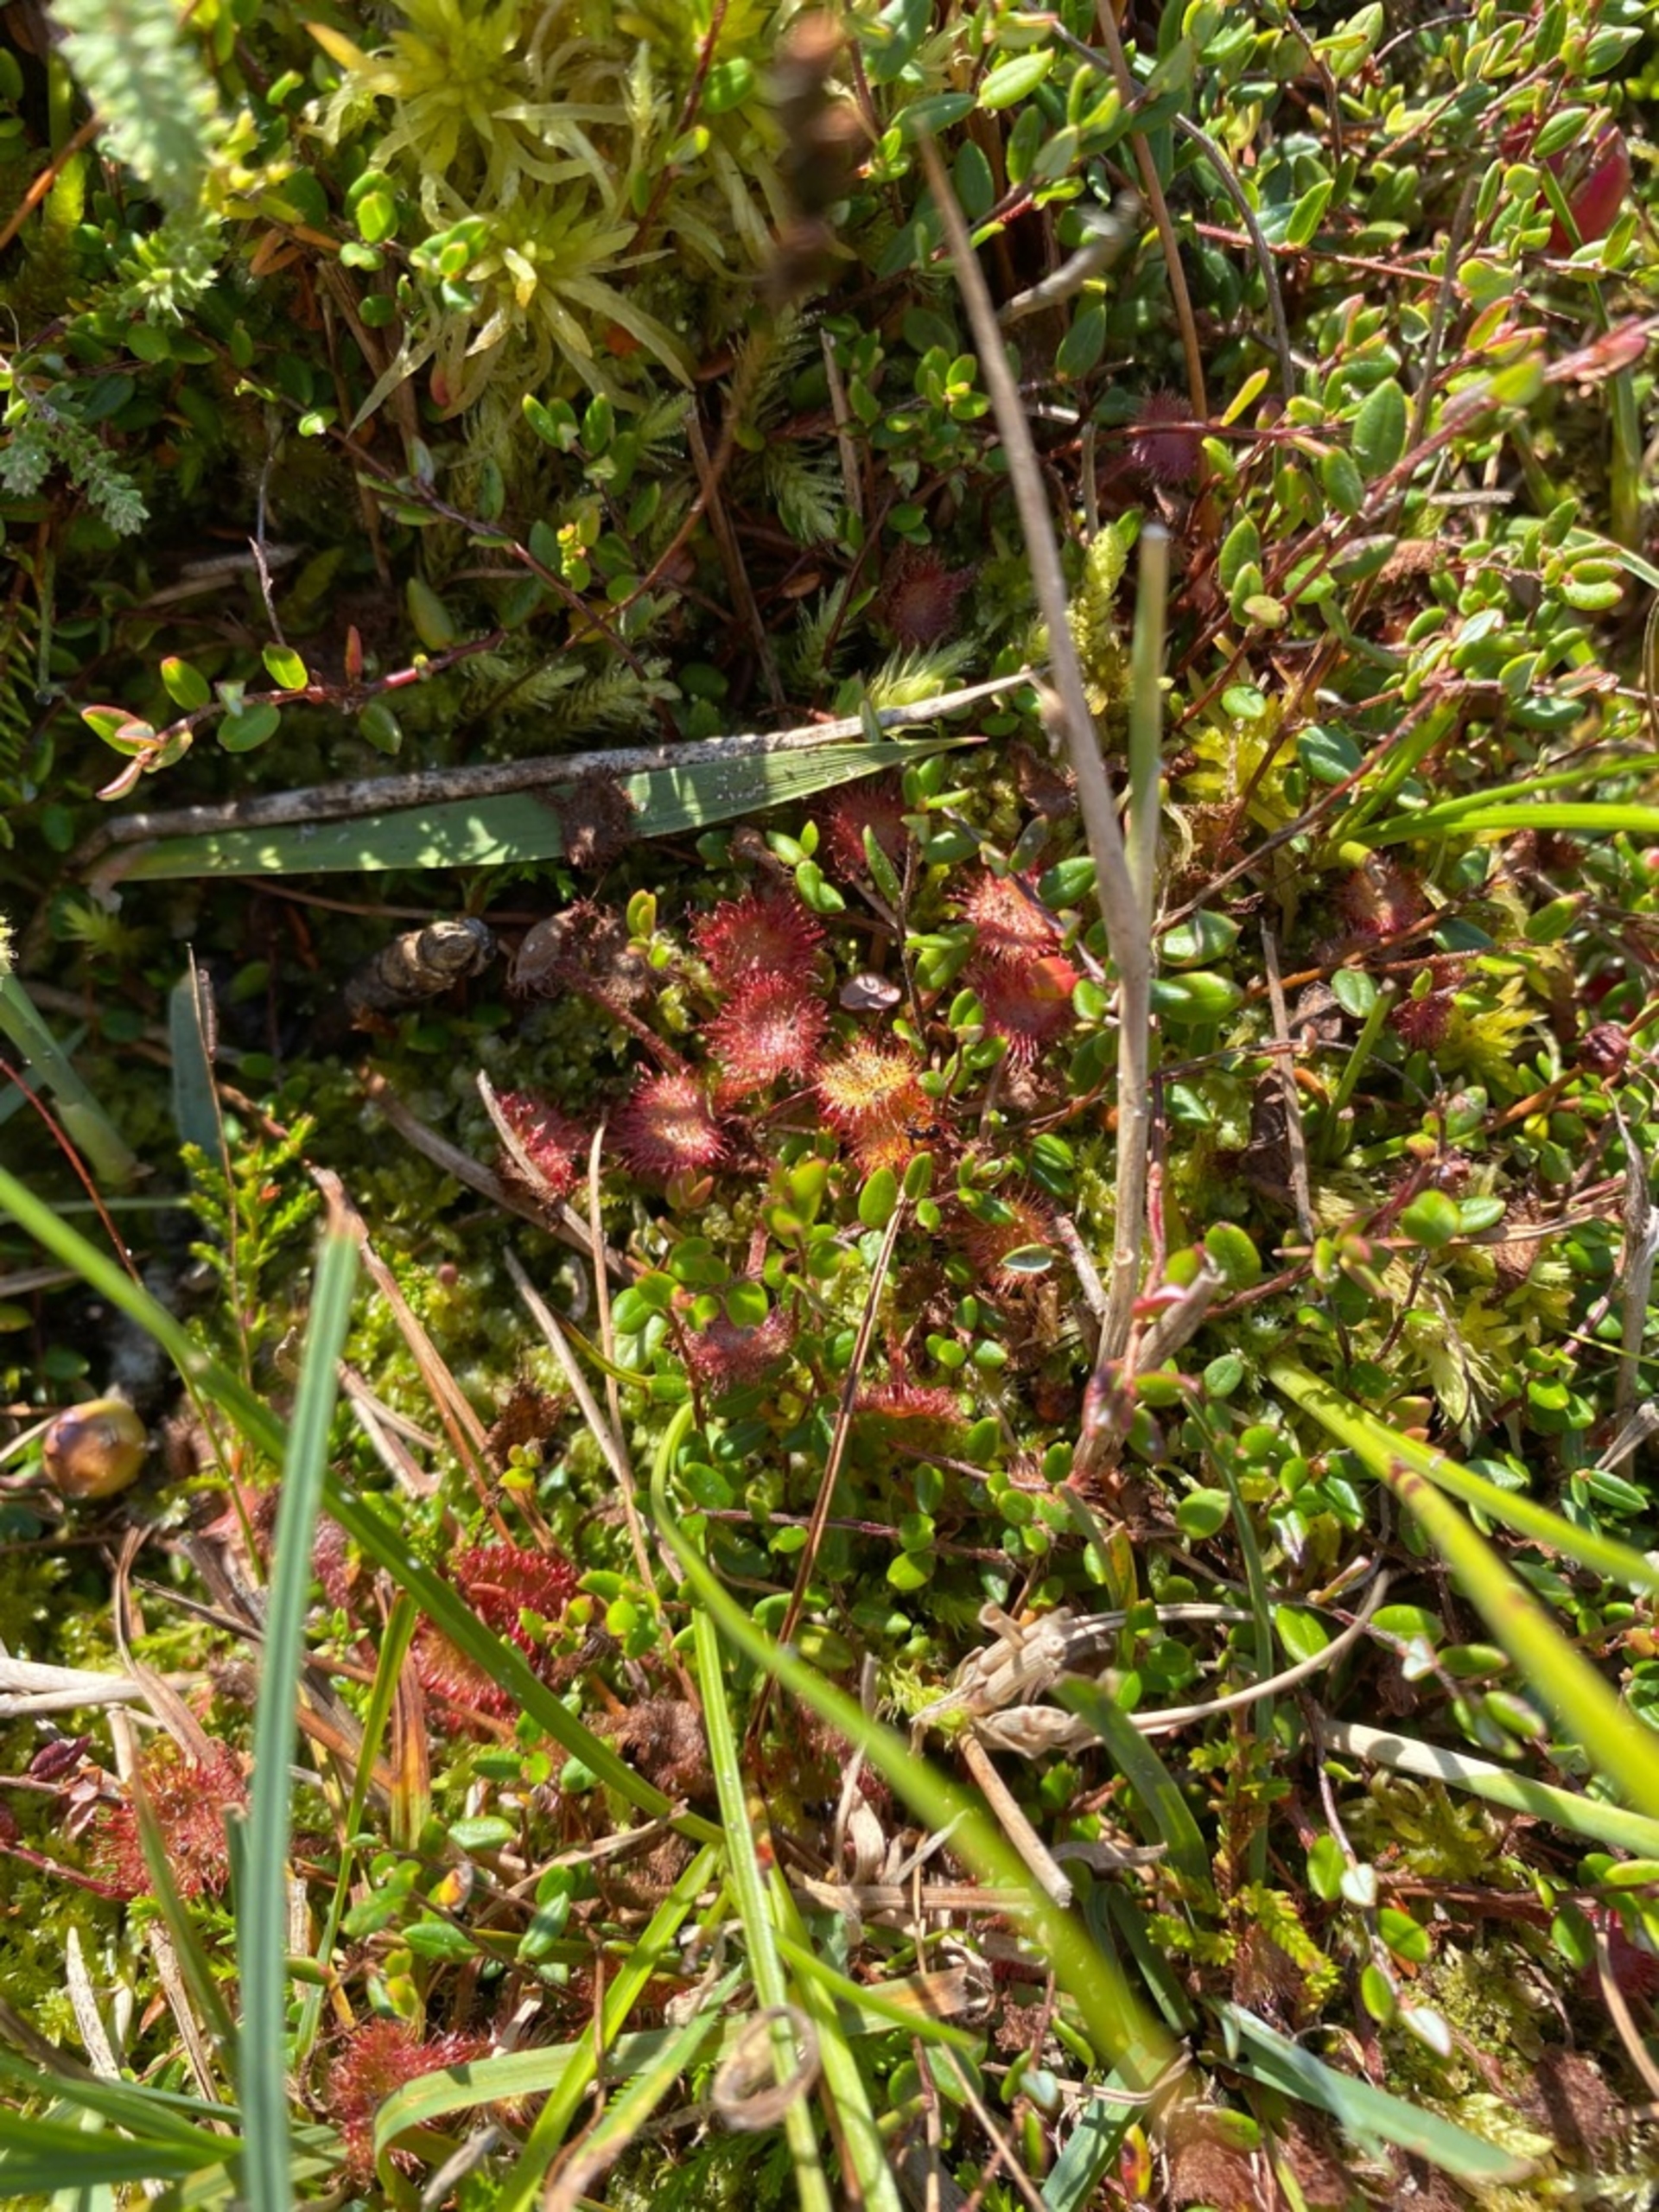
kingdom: Plantae
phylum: Tracheophyta
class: Magnoliopsida
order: Caryophyllales
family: Droseraceae
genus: Drosera
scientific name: Drosera rotundifolia
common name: Rundbladet soldug
